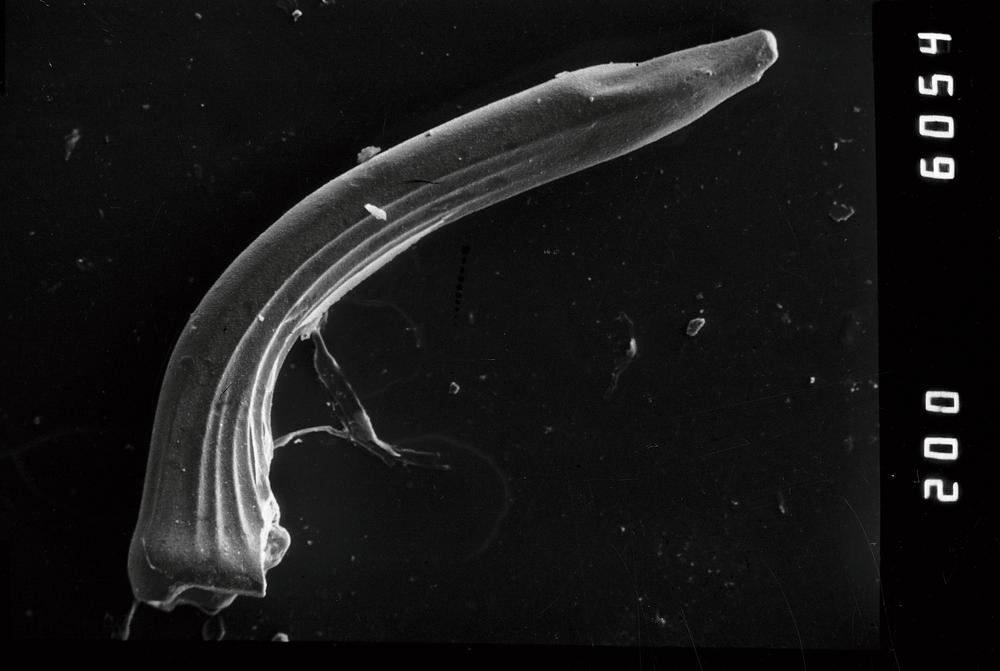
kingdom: Animalia
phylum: Chordata
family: Protopanderodontidae
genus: Scolopodus
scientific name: Scolopodus striatus
